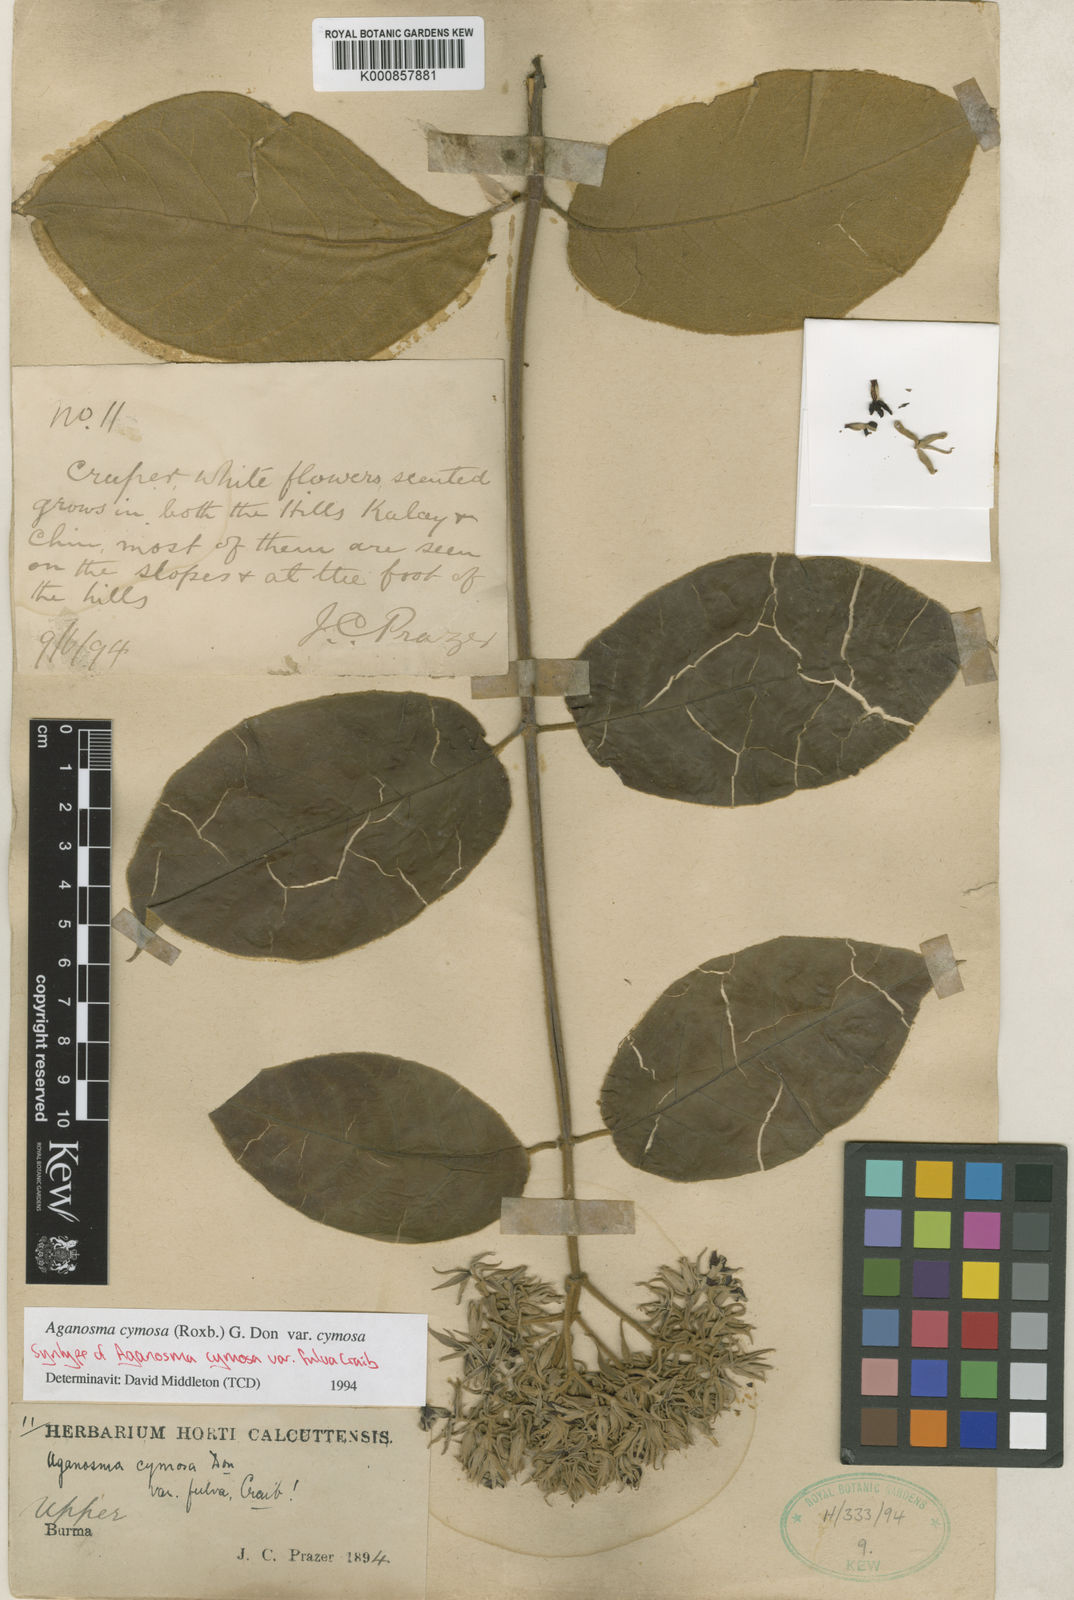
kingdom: Plantae
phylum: Tracheophyta
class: Magnoliopsida
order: Gentianales
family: Apocynaceae
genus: Aganosma
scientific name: Aganosma cymosa
